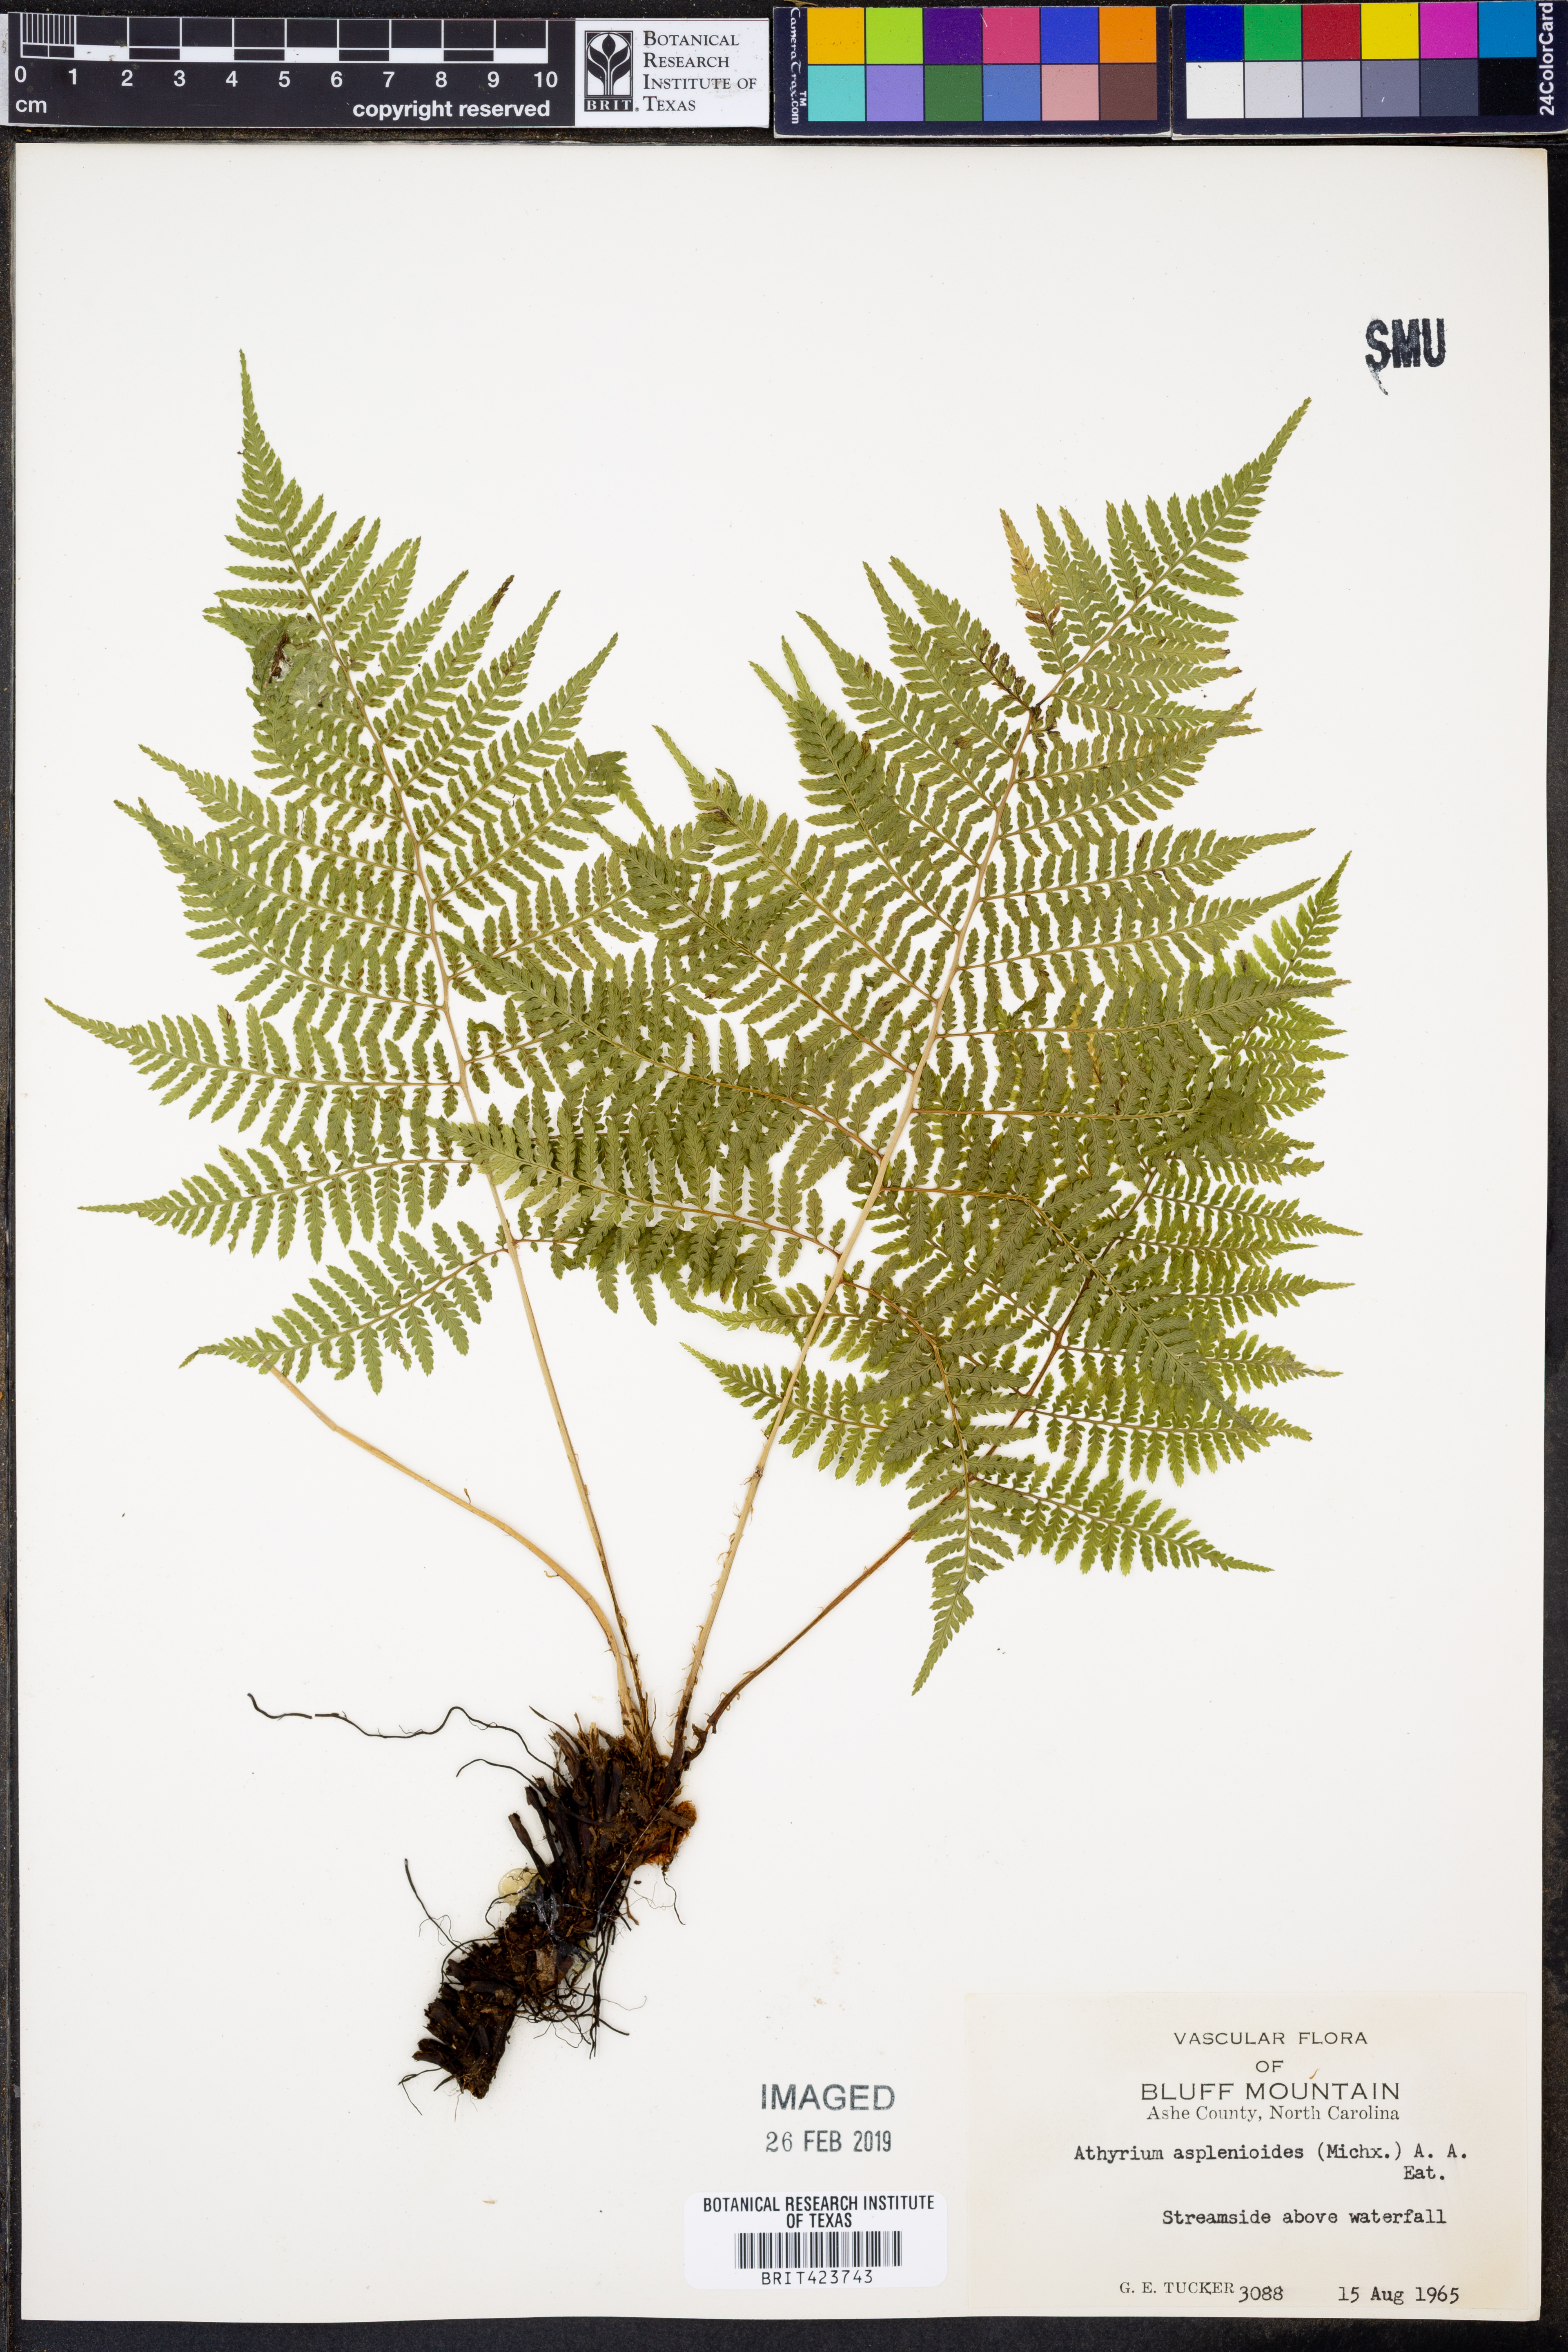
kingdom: Plantae
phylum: Tracheophyta
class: Polypodiopsida
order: Polypodiales
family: Athyriaceae
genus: Athyrium
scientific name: Athyrium asplenioides
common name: Southern lady fern
